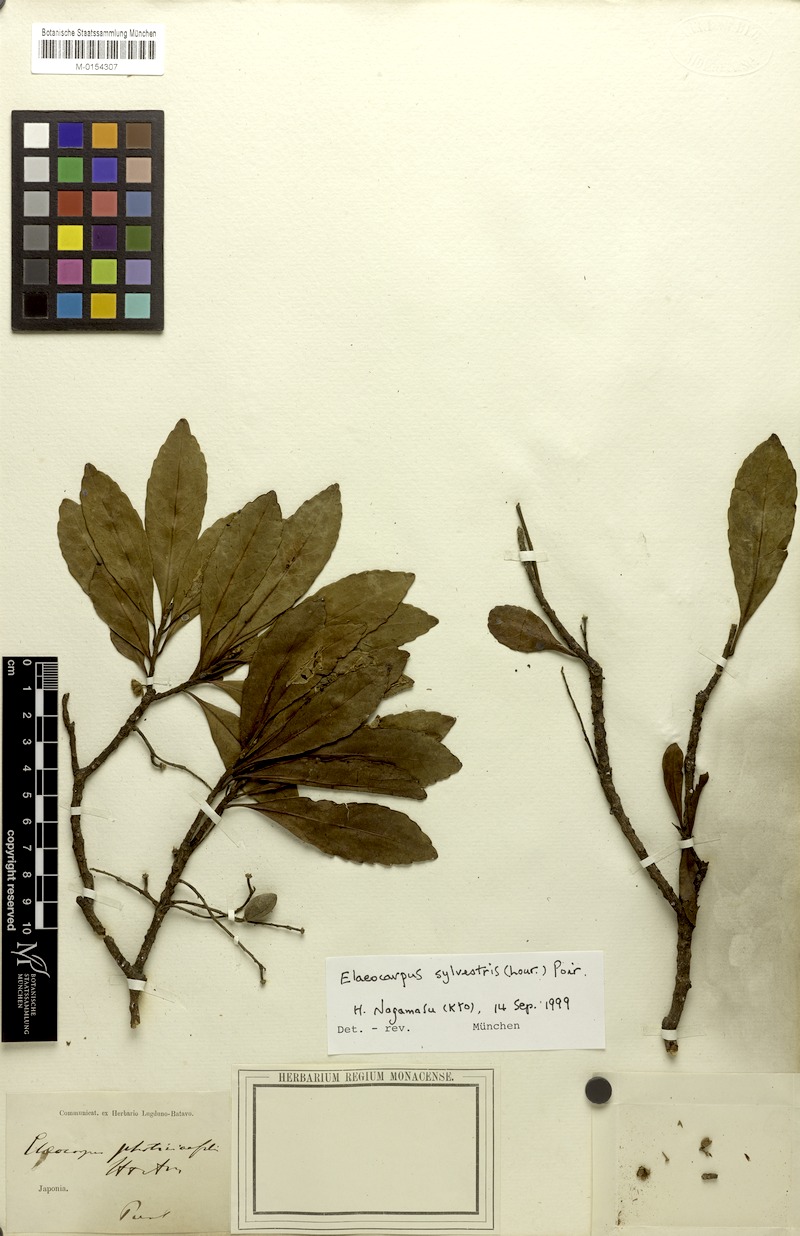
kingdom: Plantae
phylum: Tracheophyta
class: Magnoliopsida
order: Oxalidales
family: Elaeocarpaceae
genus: Elaeocarpus
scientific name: Elaeocarpus sylvestris
